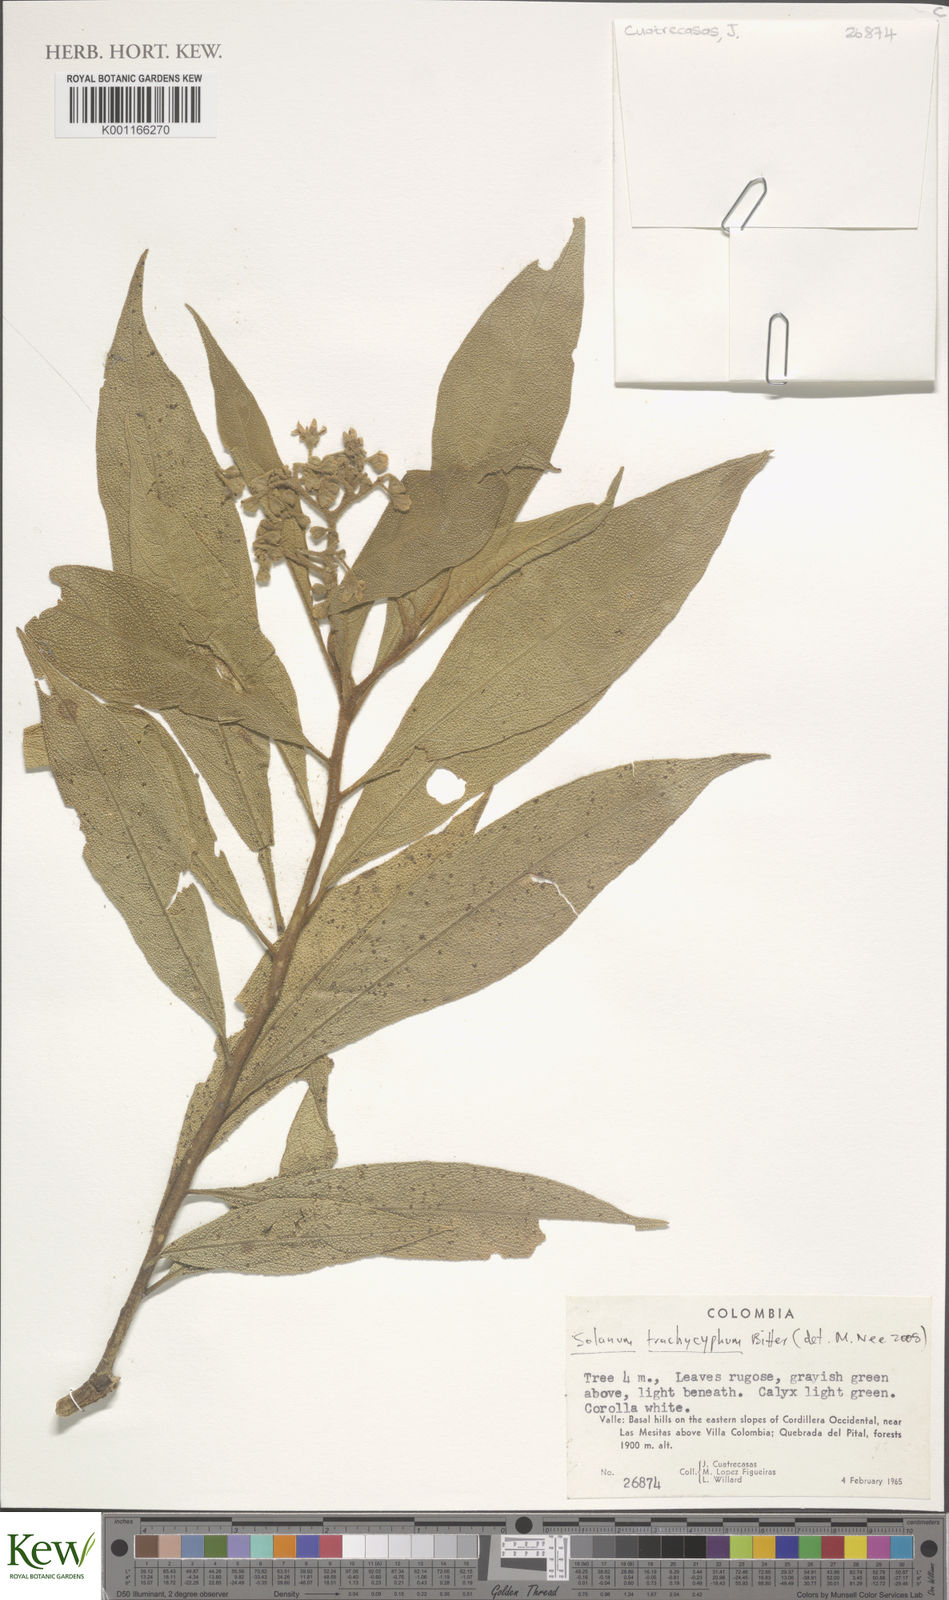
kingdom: Plantae
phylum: Tracheophyta
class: Magnoliopsida
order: Solanales
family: Solanaceae
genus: Solanum
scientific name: Solanum trachycyphum
